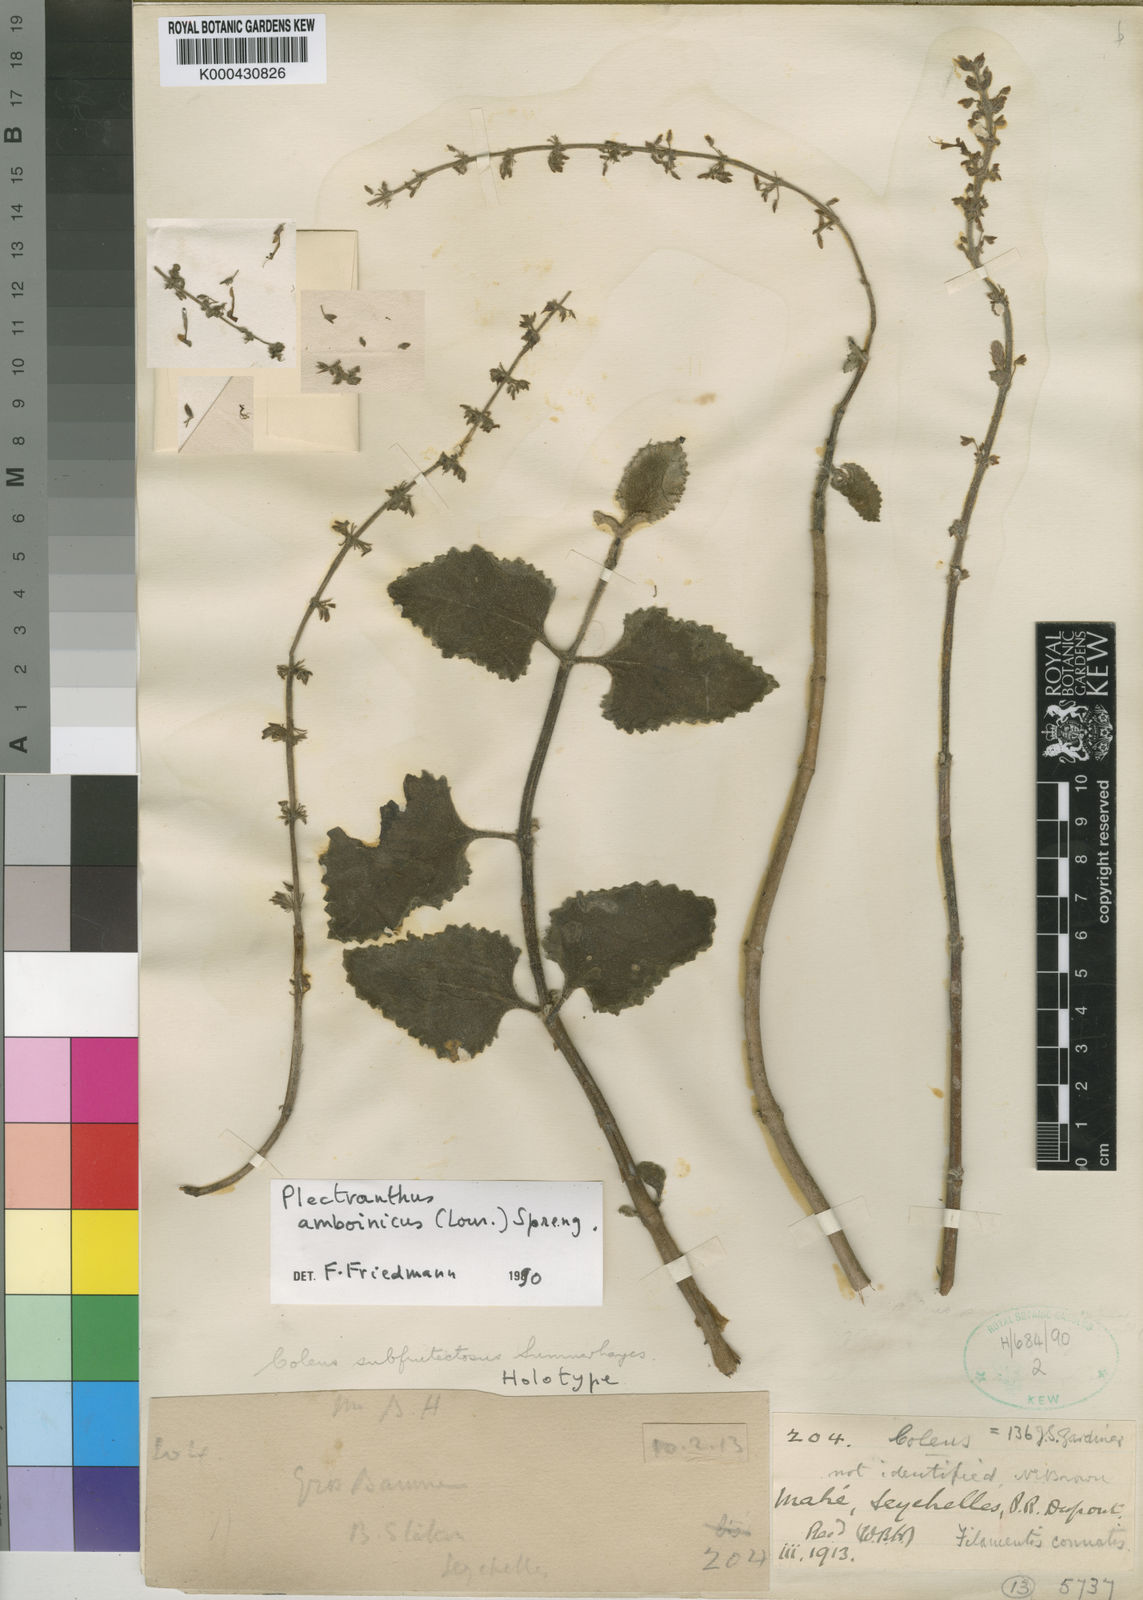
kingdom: Plantae
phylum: Tracheophyta
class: Magnoliopsida
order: Lamiales
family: Lamiaceae
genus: Plectranthus
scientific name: Plectranthus
